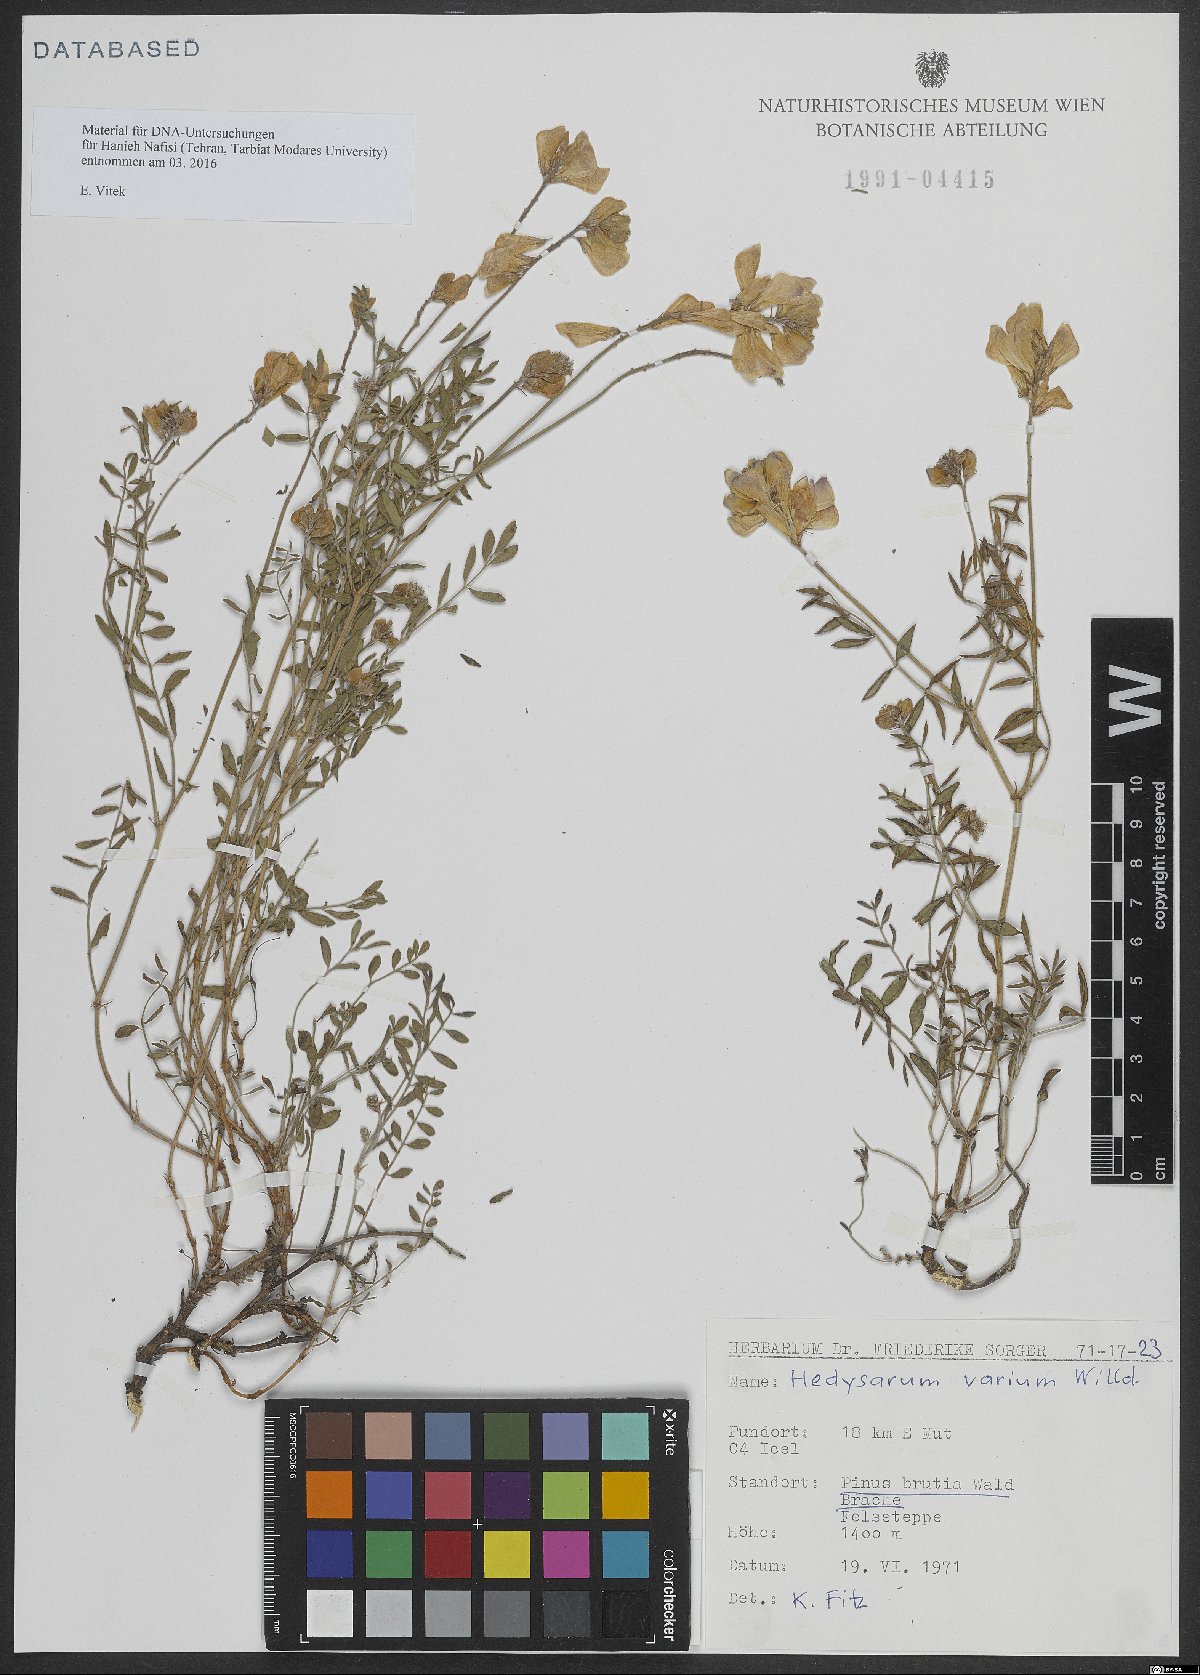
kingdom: Plantae
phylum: Tracheophyta
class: Magnoliopsida
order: Fabales
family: Fabaceae
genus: Hedysarum
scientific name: Hedysarum varium
